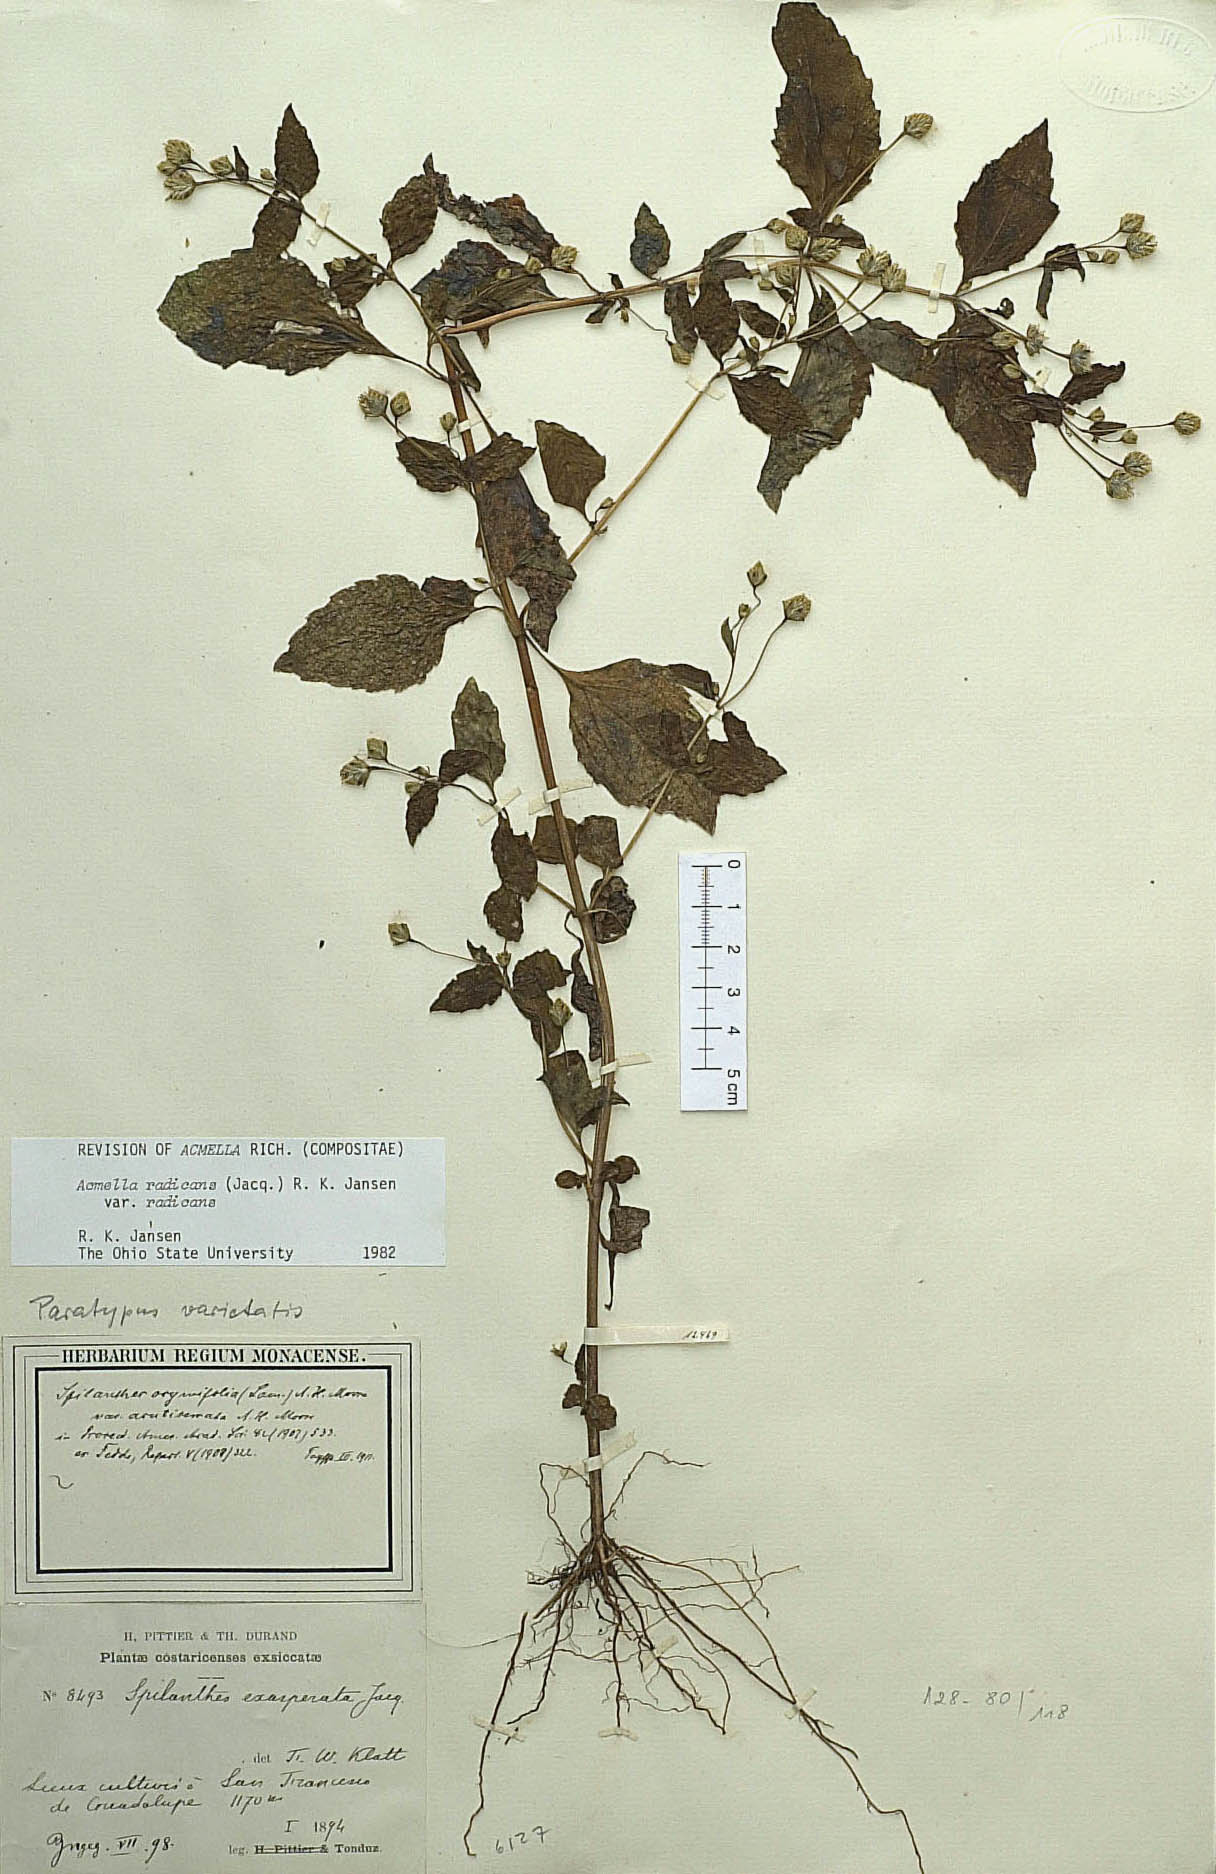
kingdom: Plantae
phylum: Tracheophyta
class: Magnoliopsida
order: Asterales
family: Asteraceae
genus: Acmella
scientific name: Acmella radicans
